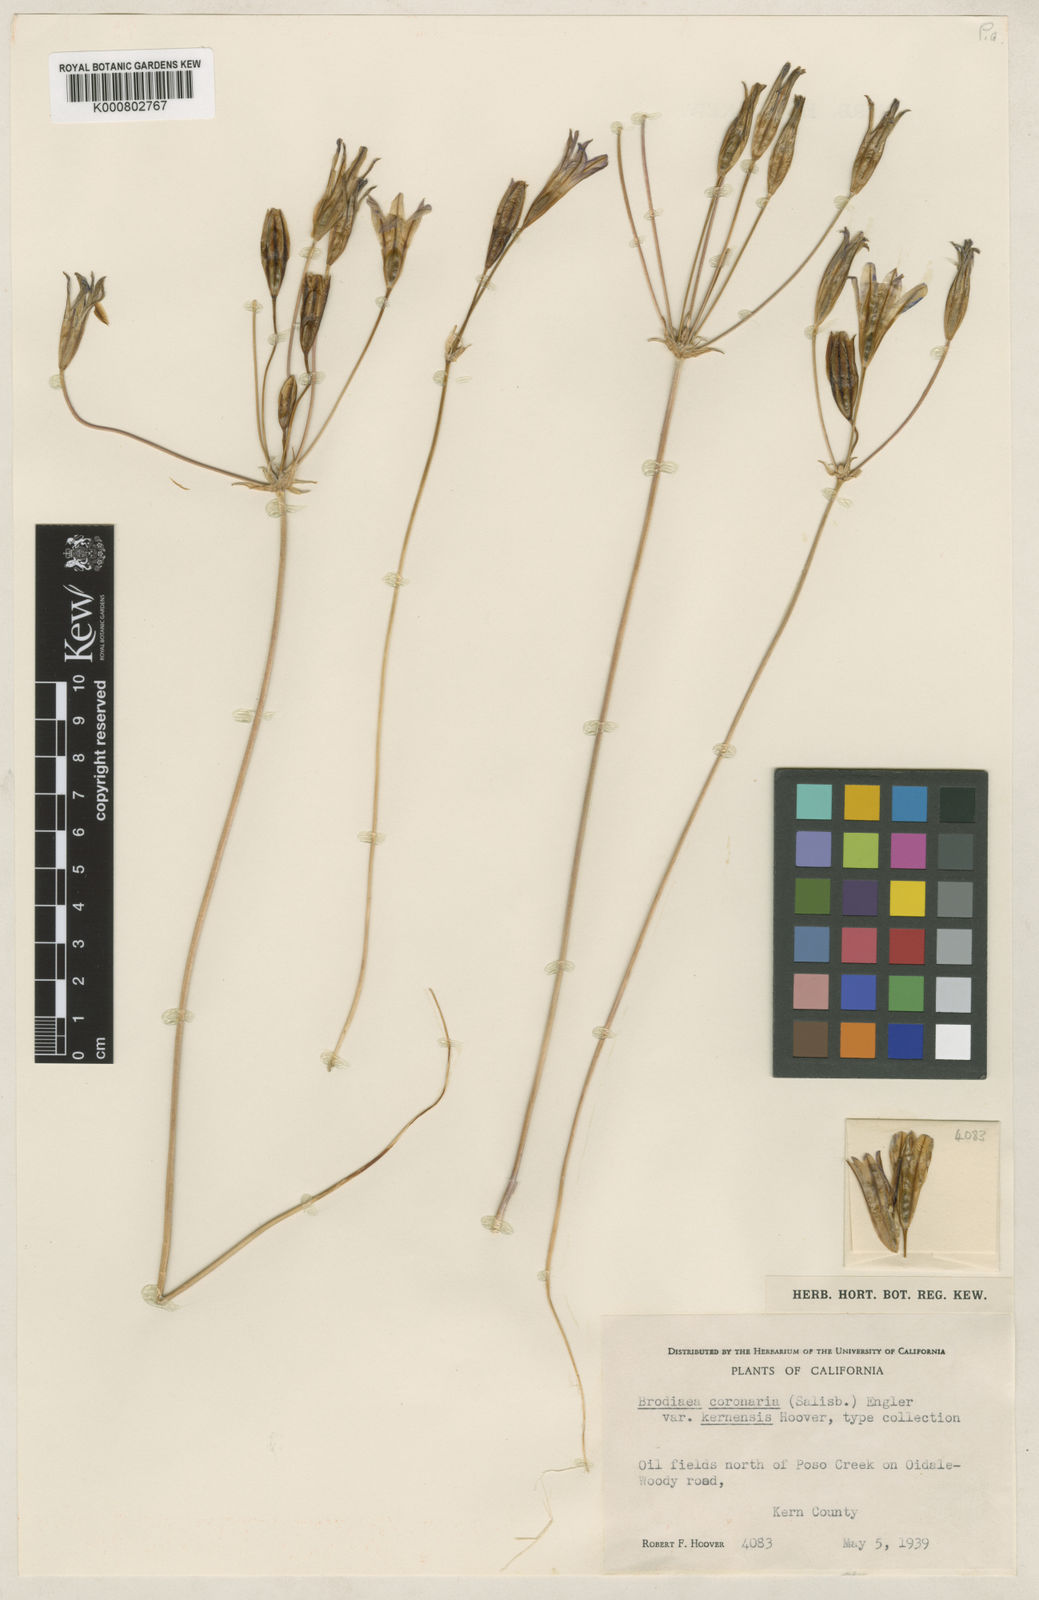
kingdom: Plantae
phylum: Tracheophyta
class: Liliopsida
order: Asparagales
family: Asparagaceae
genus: Brodiaea
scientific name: Brodiaea terrestris
